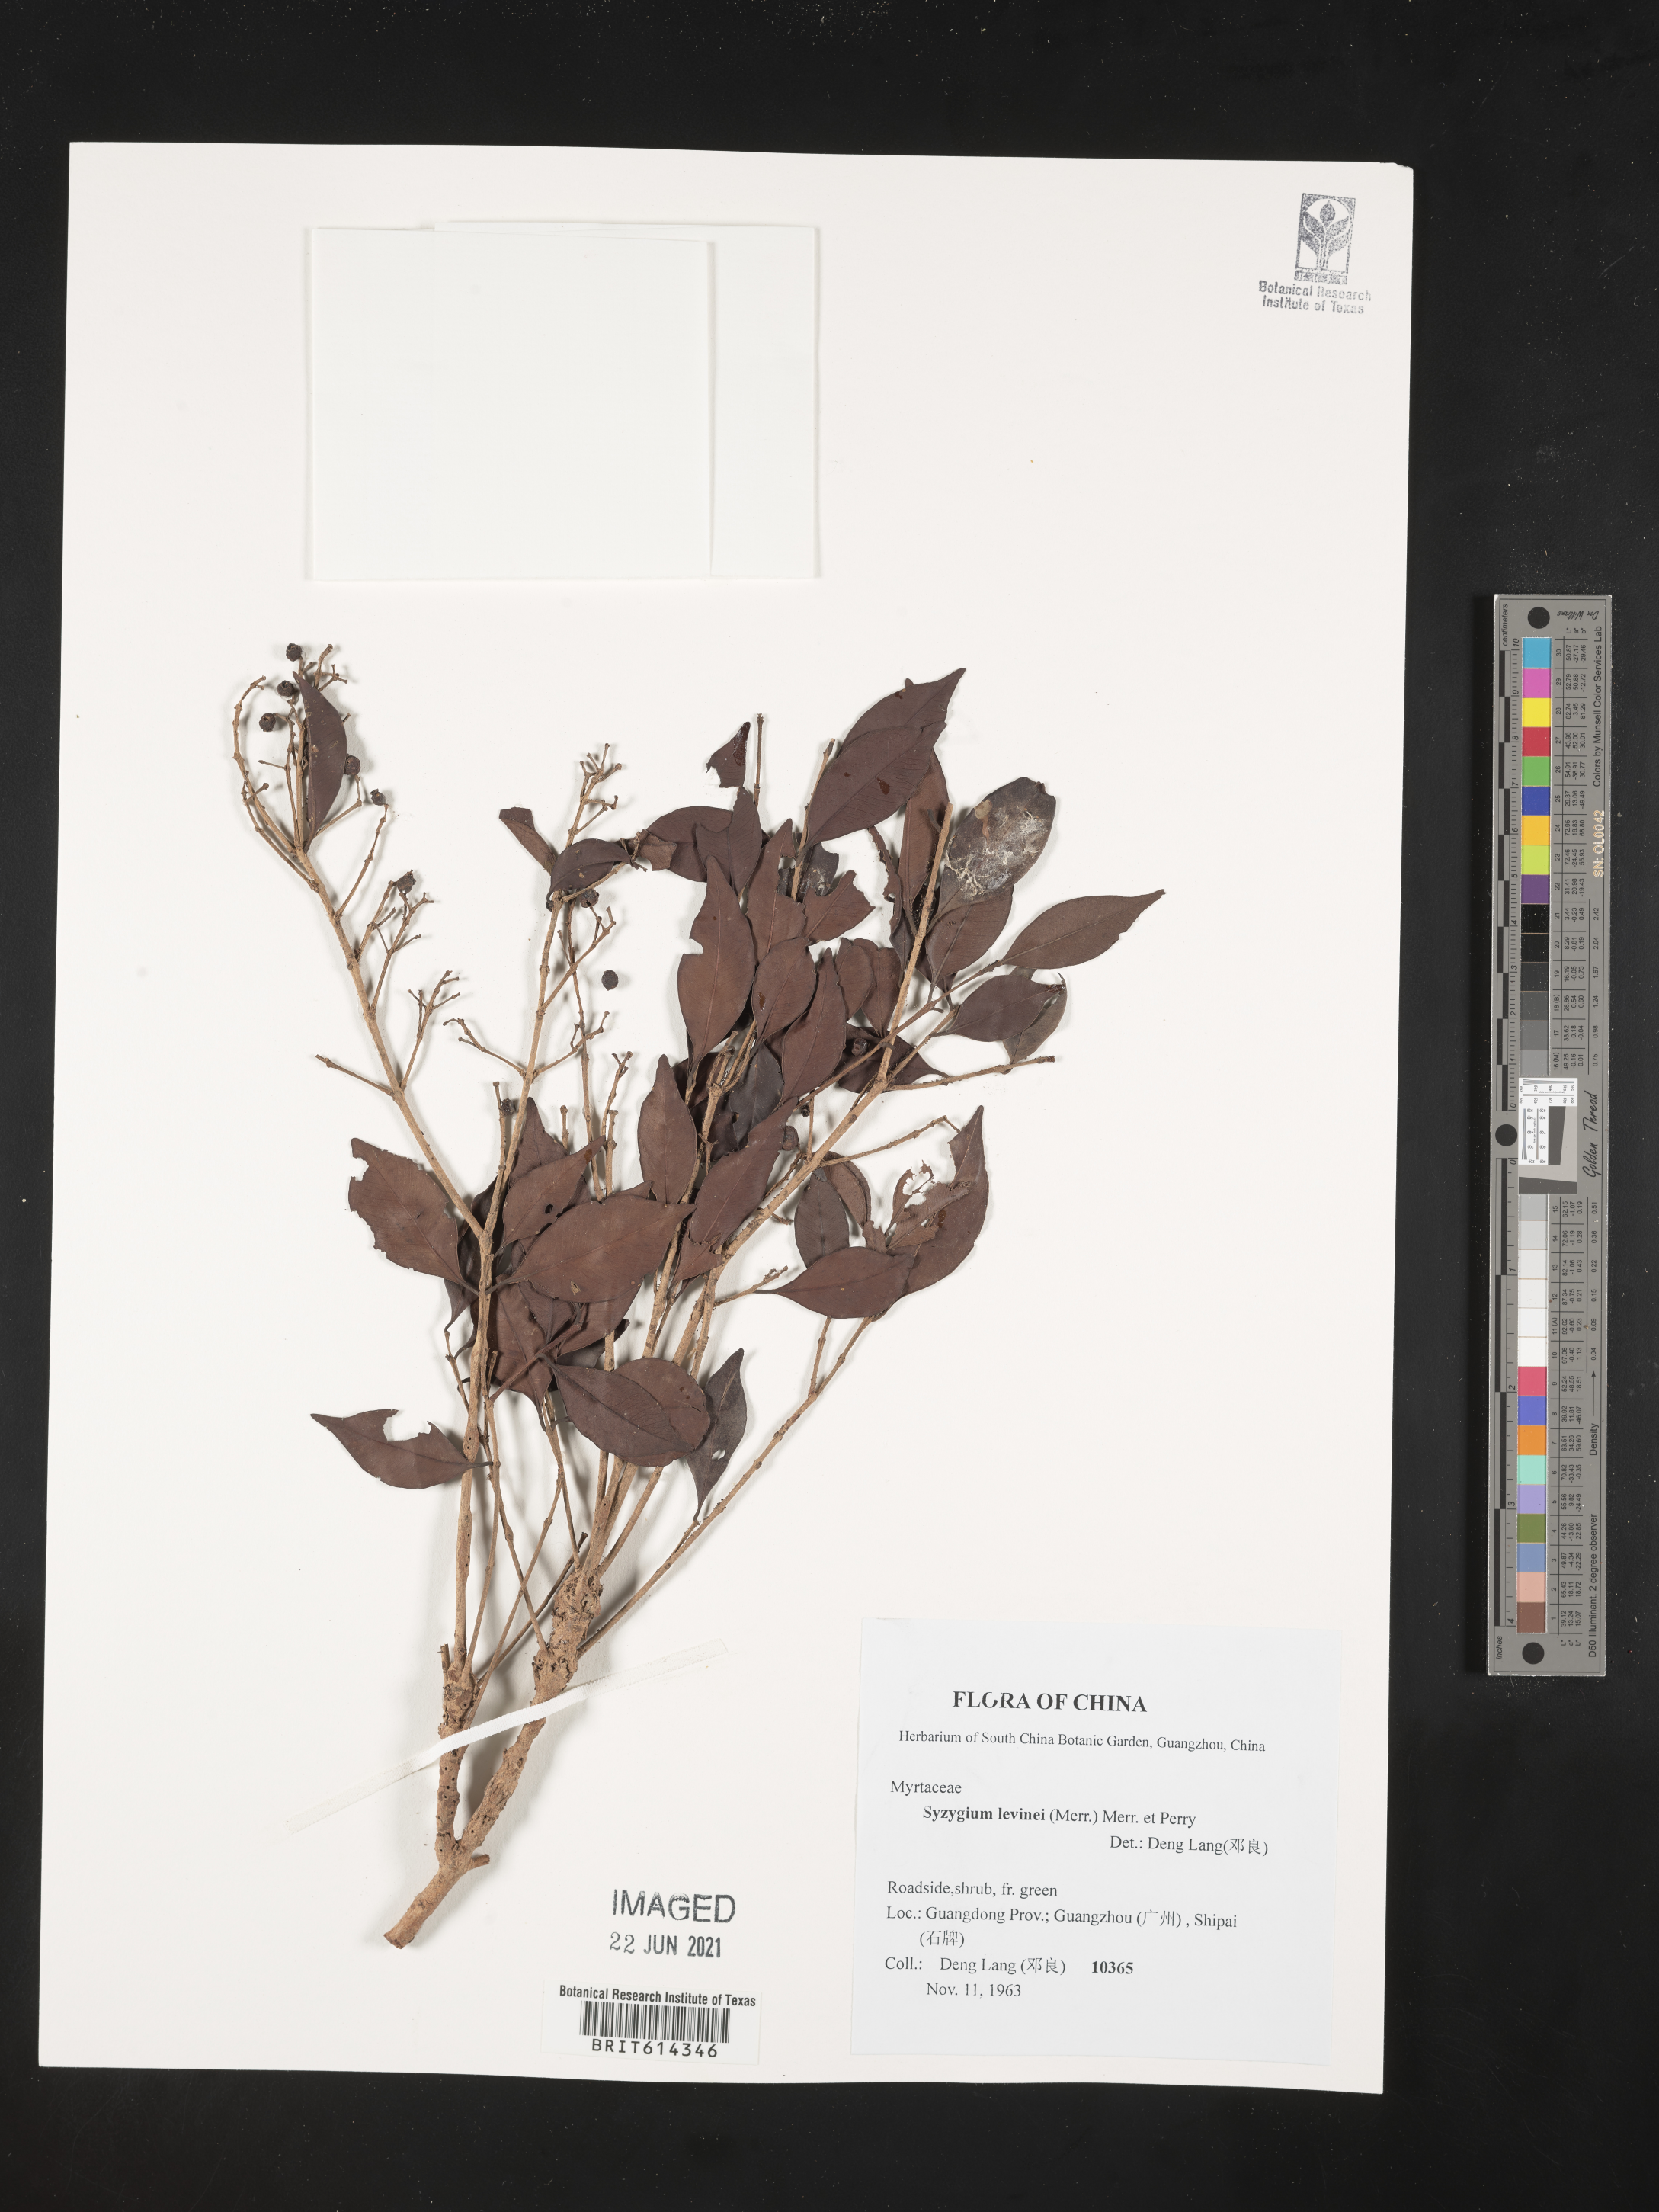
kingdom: Plantae
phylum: Tracheophyta
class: Magnoliopsida
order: Myrtales
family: Myrtaceae
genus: Syzygium
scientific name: Syzygium levinei
